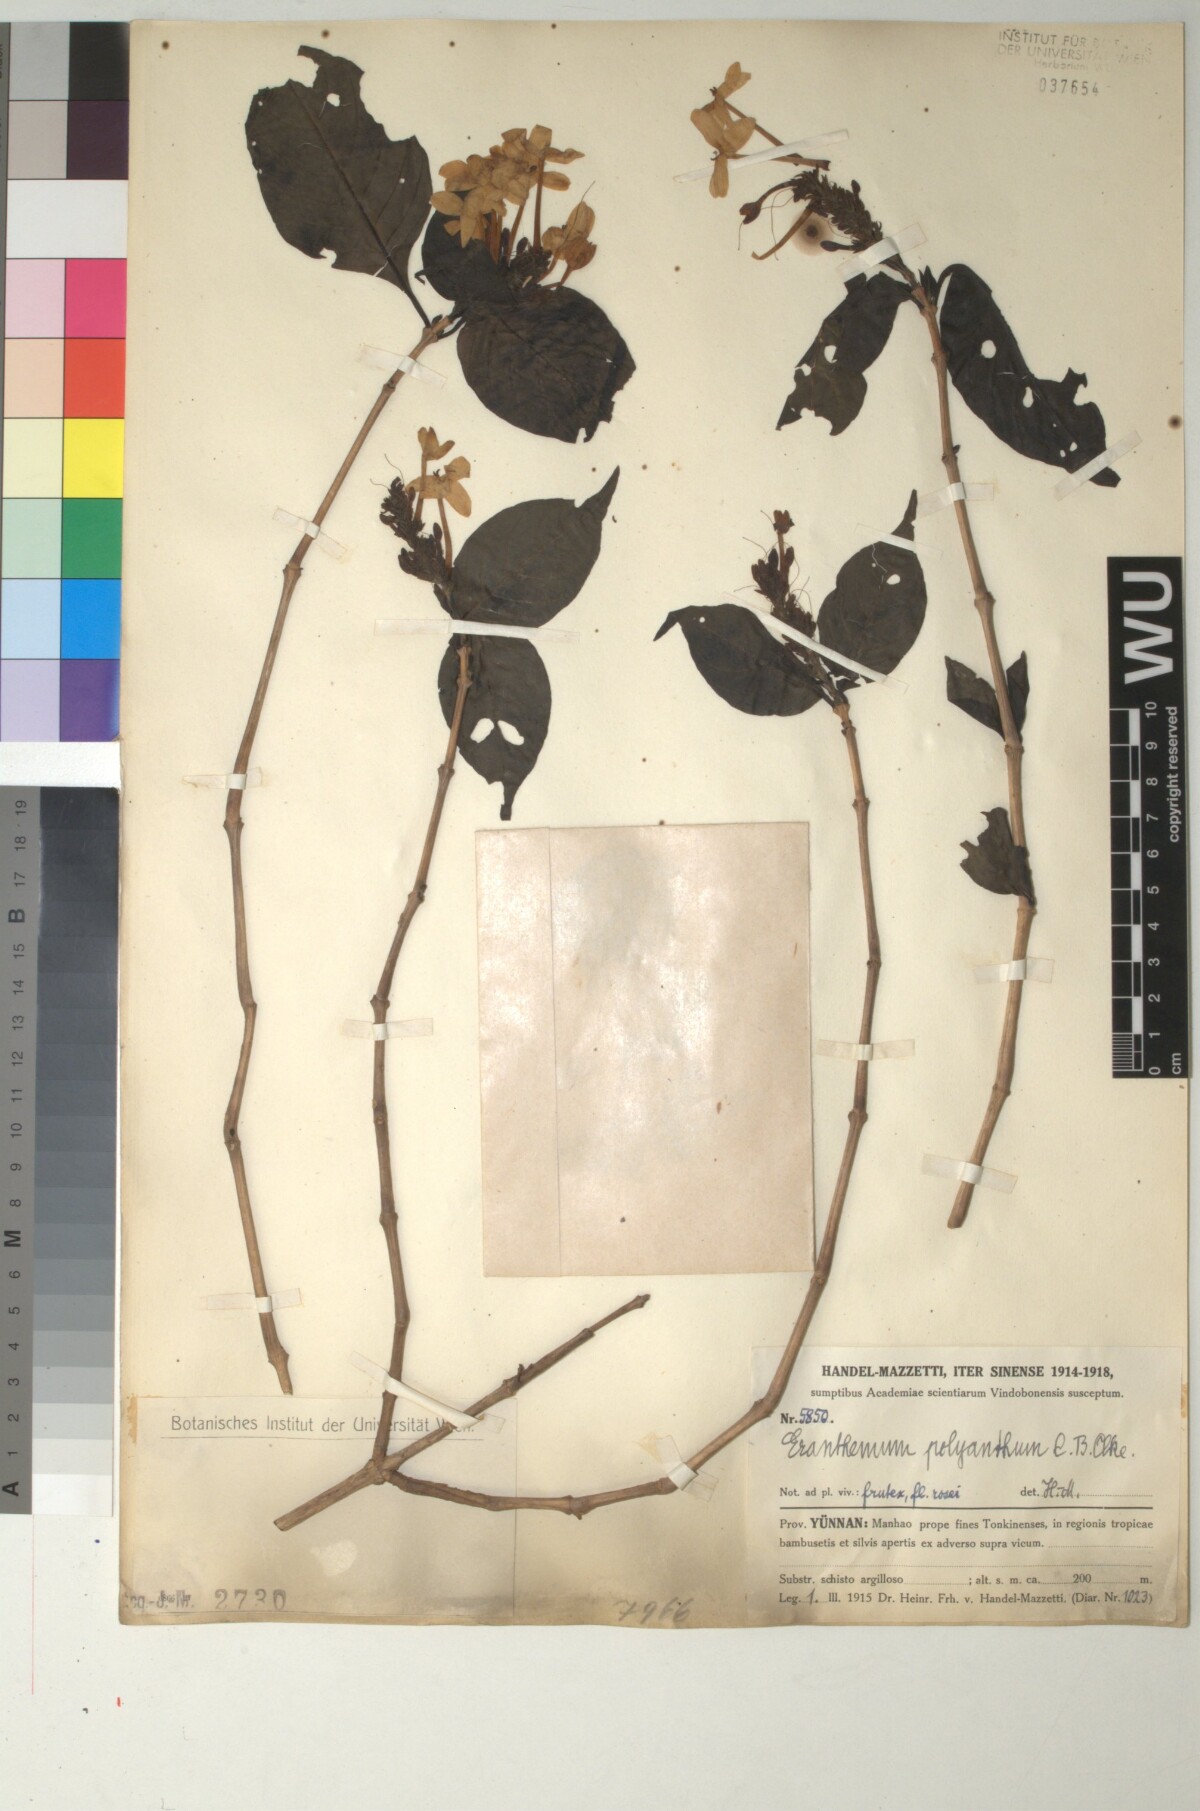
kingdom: Plantae
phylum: Tracheophyta
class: Magnoliopsida
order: Lamiales
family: Acanthaceae
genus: Pseuderanthemum
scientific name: Pseuderanthemum polyanthum
